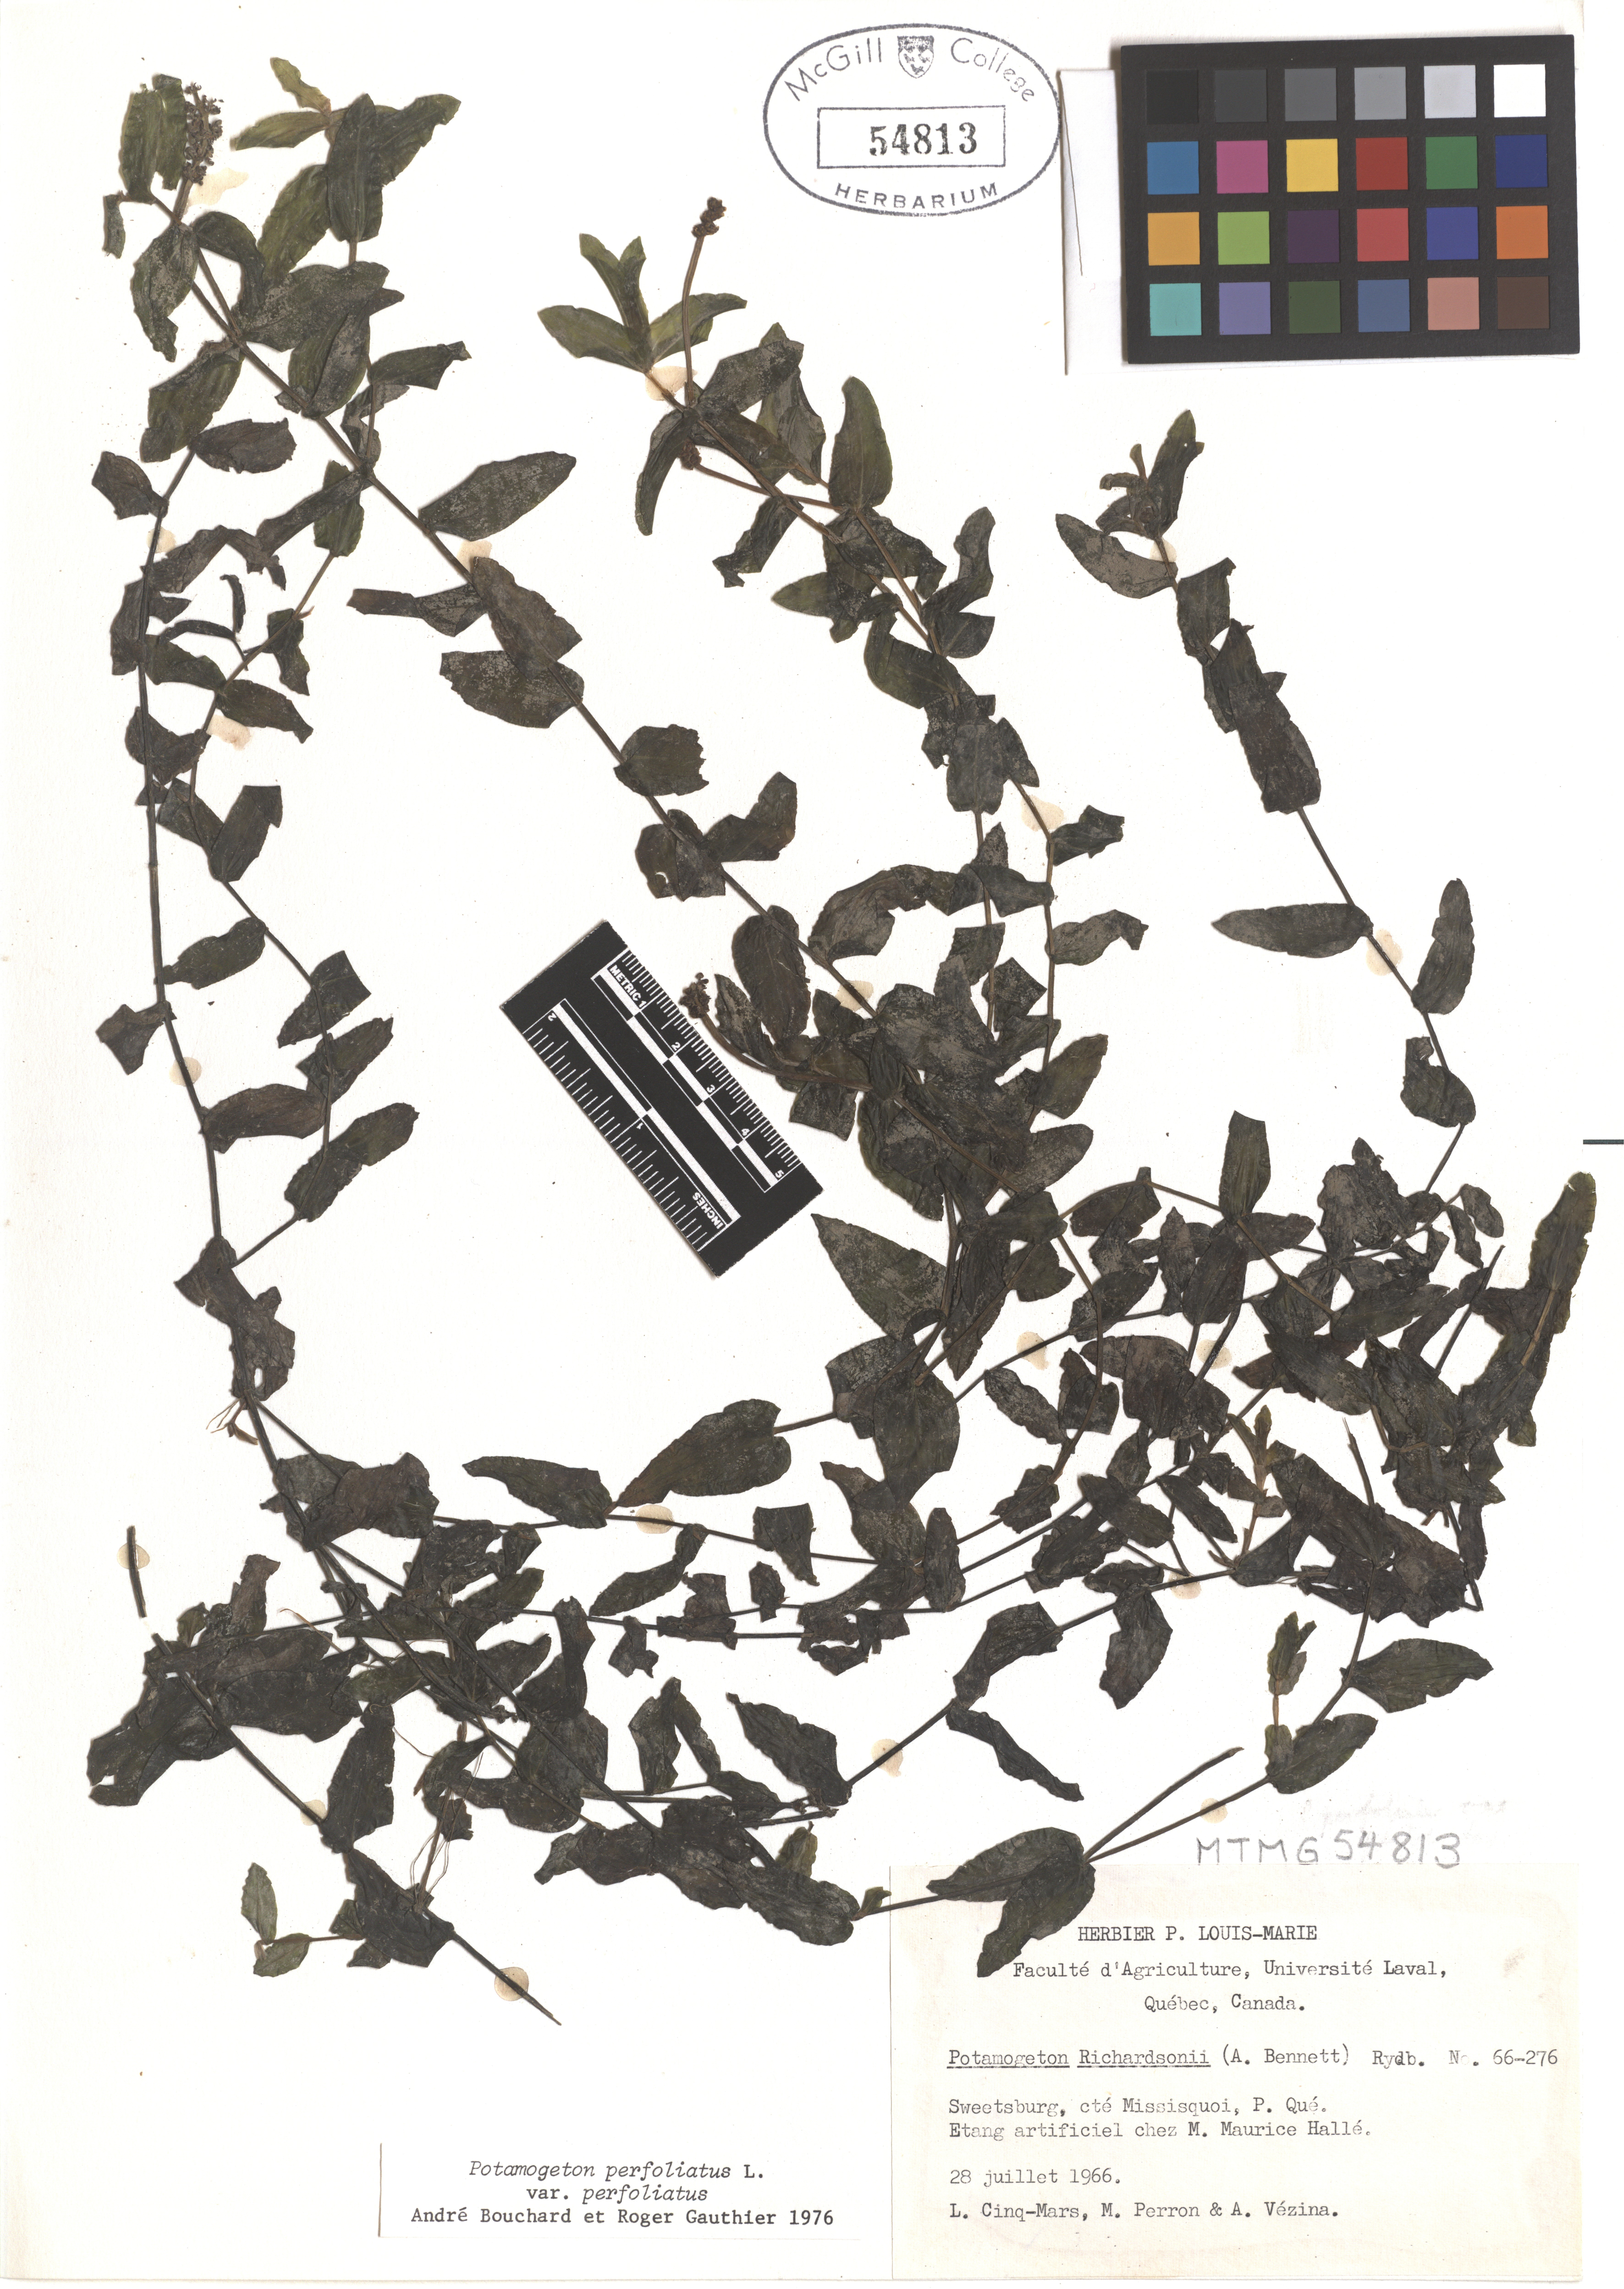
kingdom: Plantae
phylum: Tracheophyta
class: Liliopsida
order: Alismatales
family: Potamogetonaceae
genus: Potamogeton
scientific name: Potamogeton perfoliatus
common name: Perfoliate pondweed
